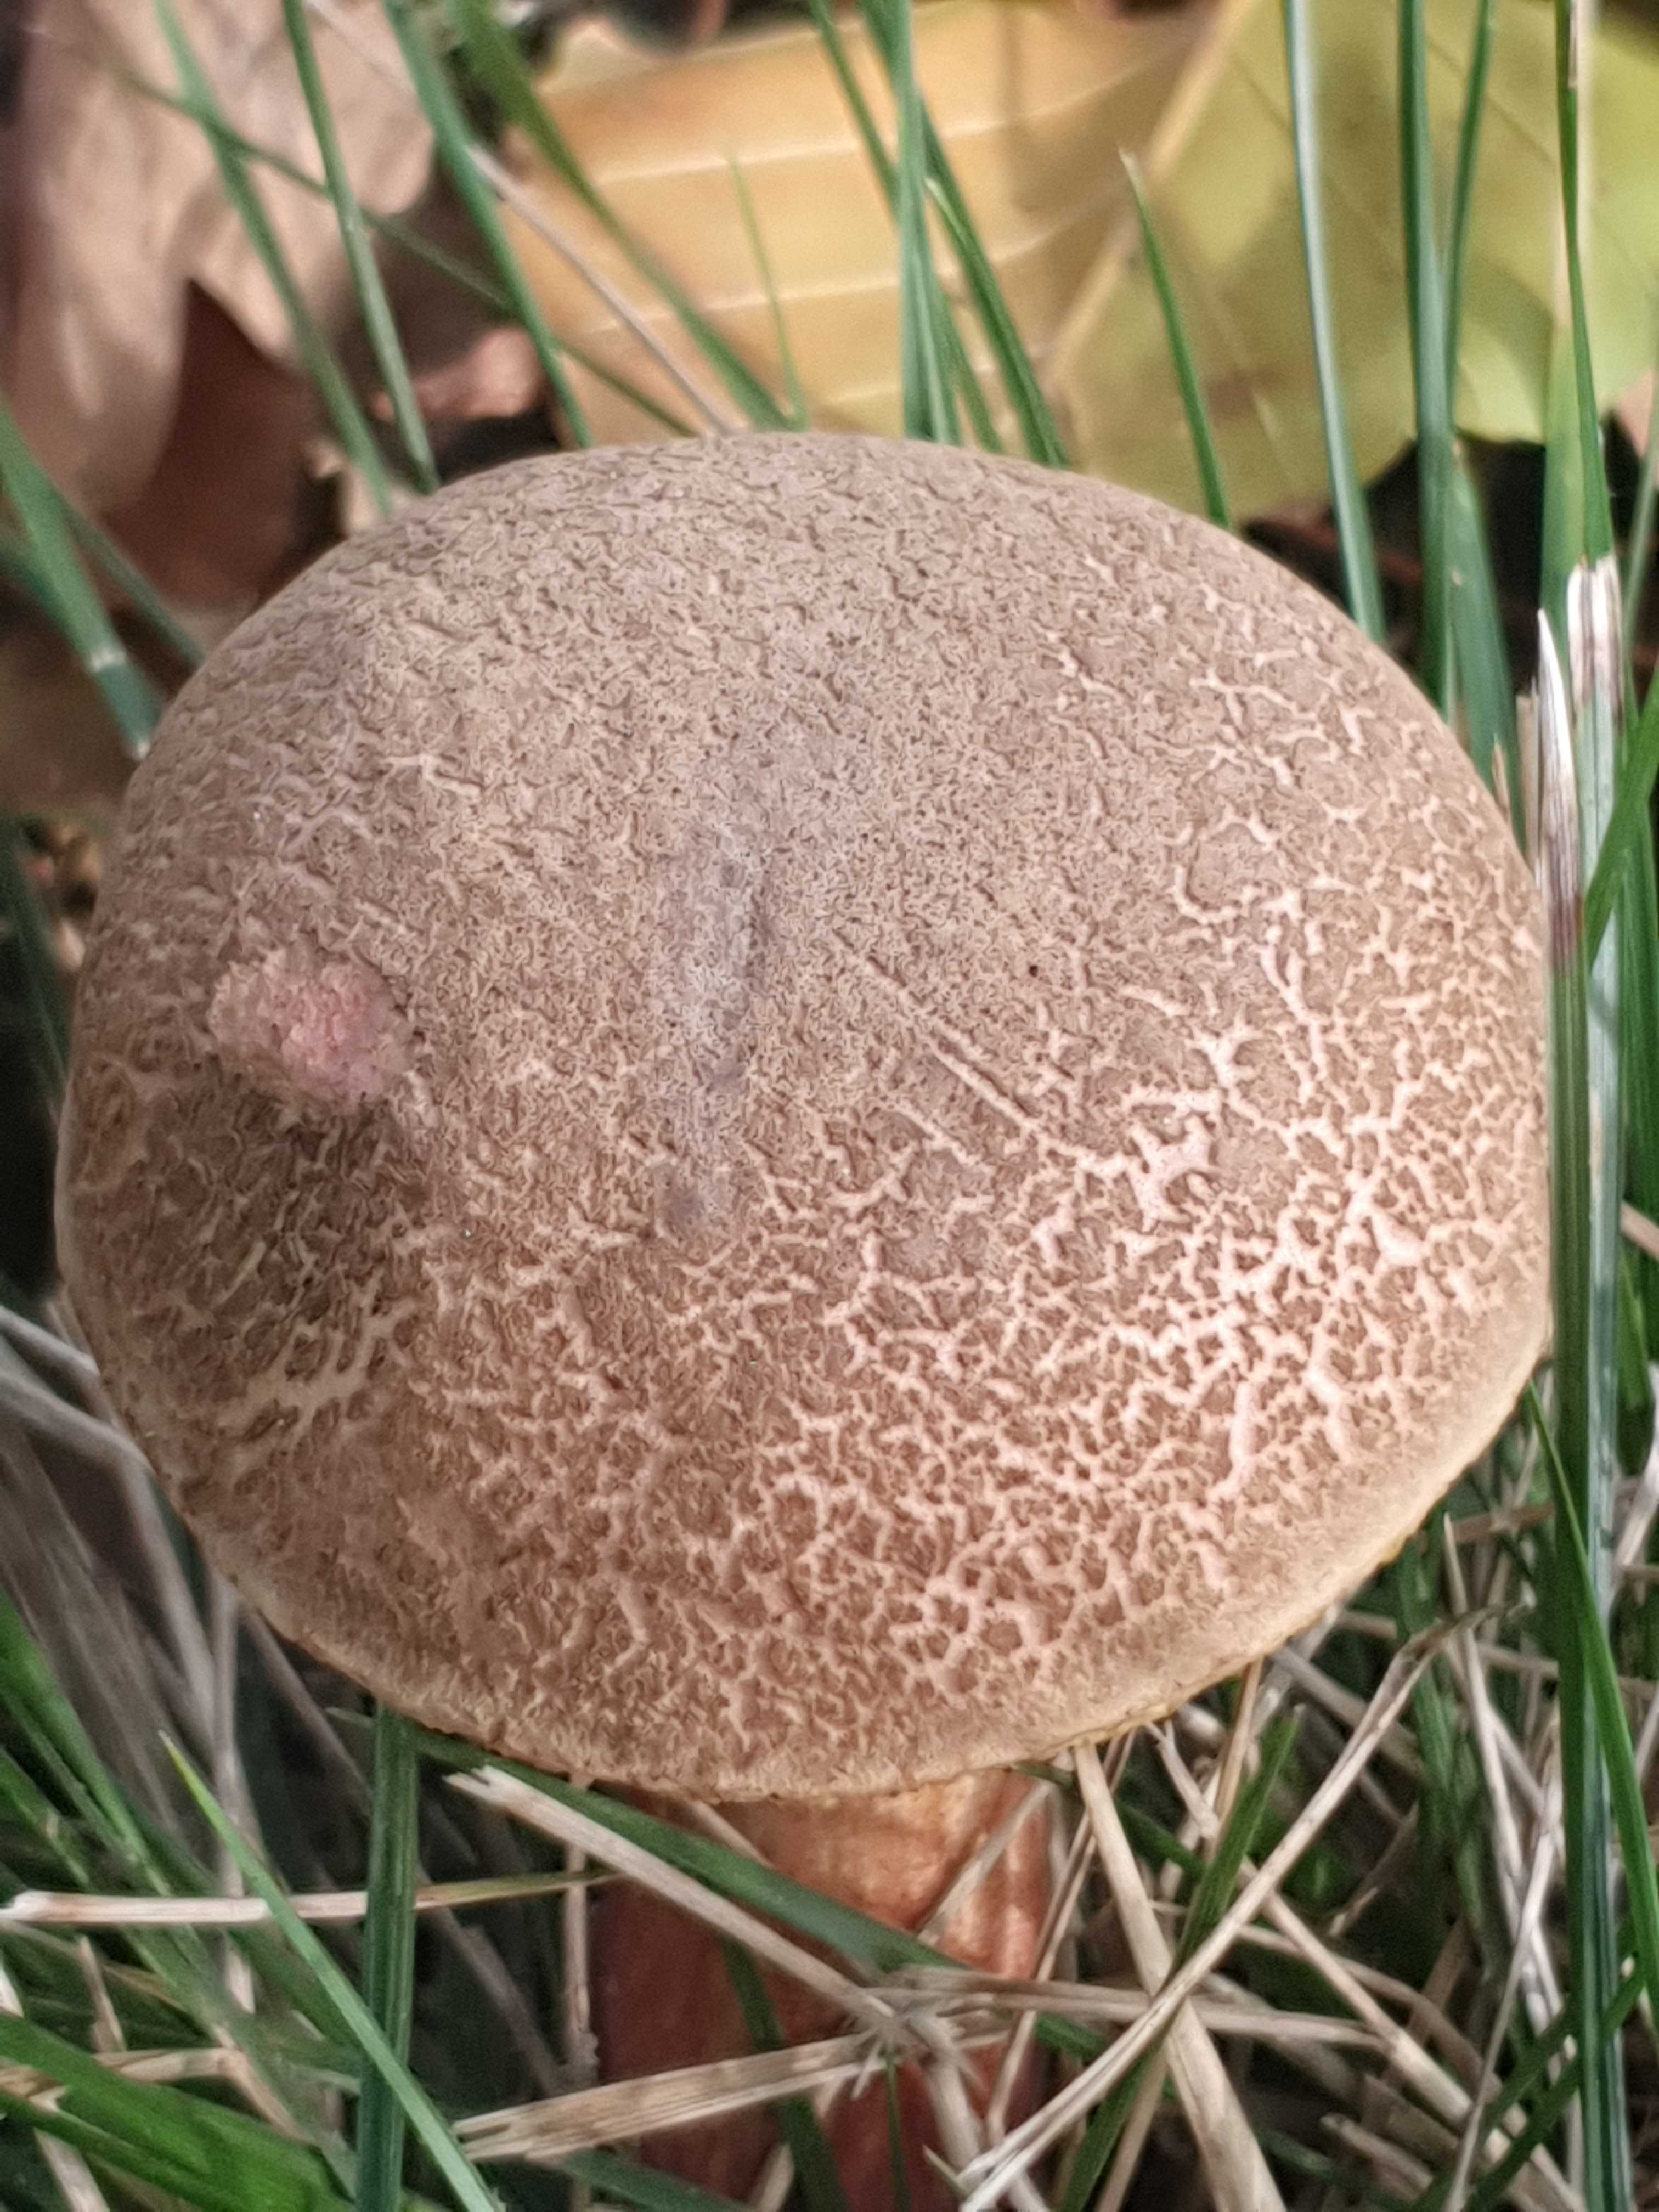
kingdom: Fungi
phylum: Basidiomycota
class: Agaricomycetes
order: Boletales
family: Boletaceae
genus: Xerocomellus
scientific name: Xerocomellus cisalpinus
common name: finsprukken rørhat
